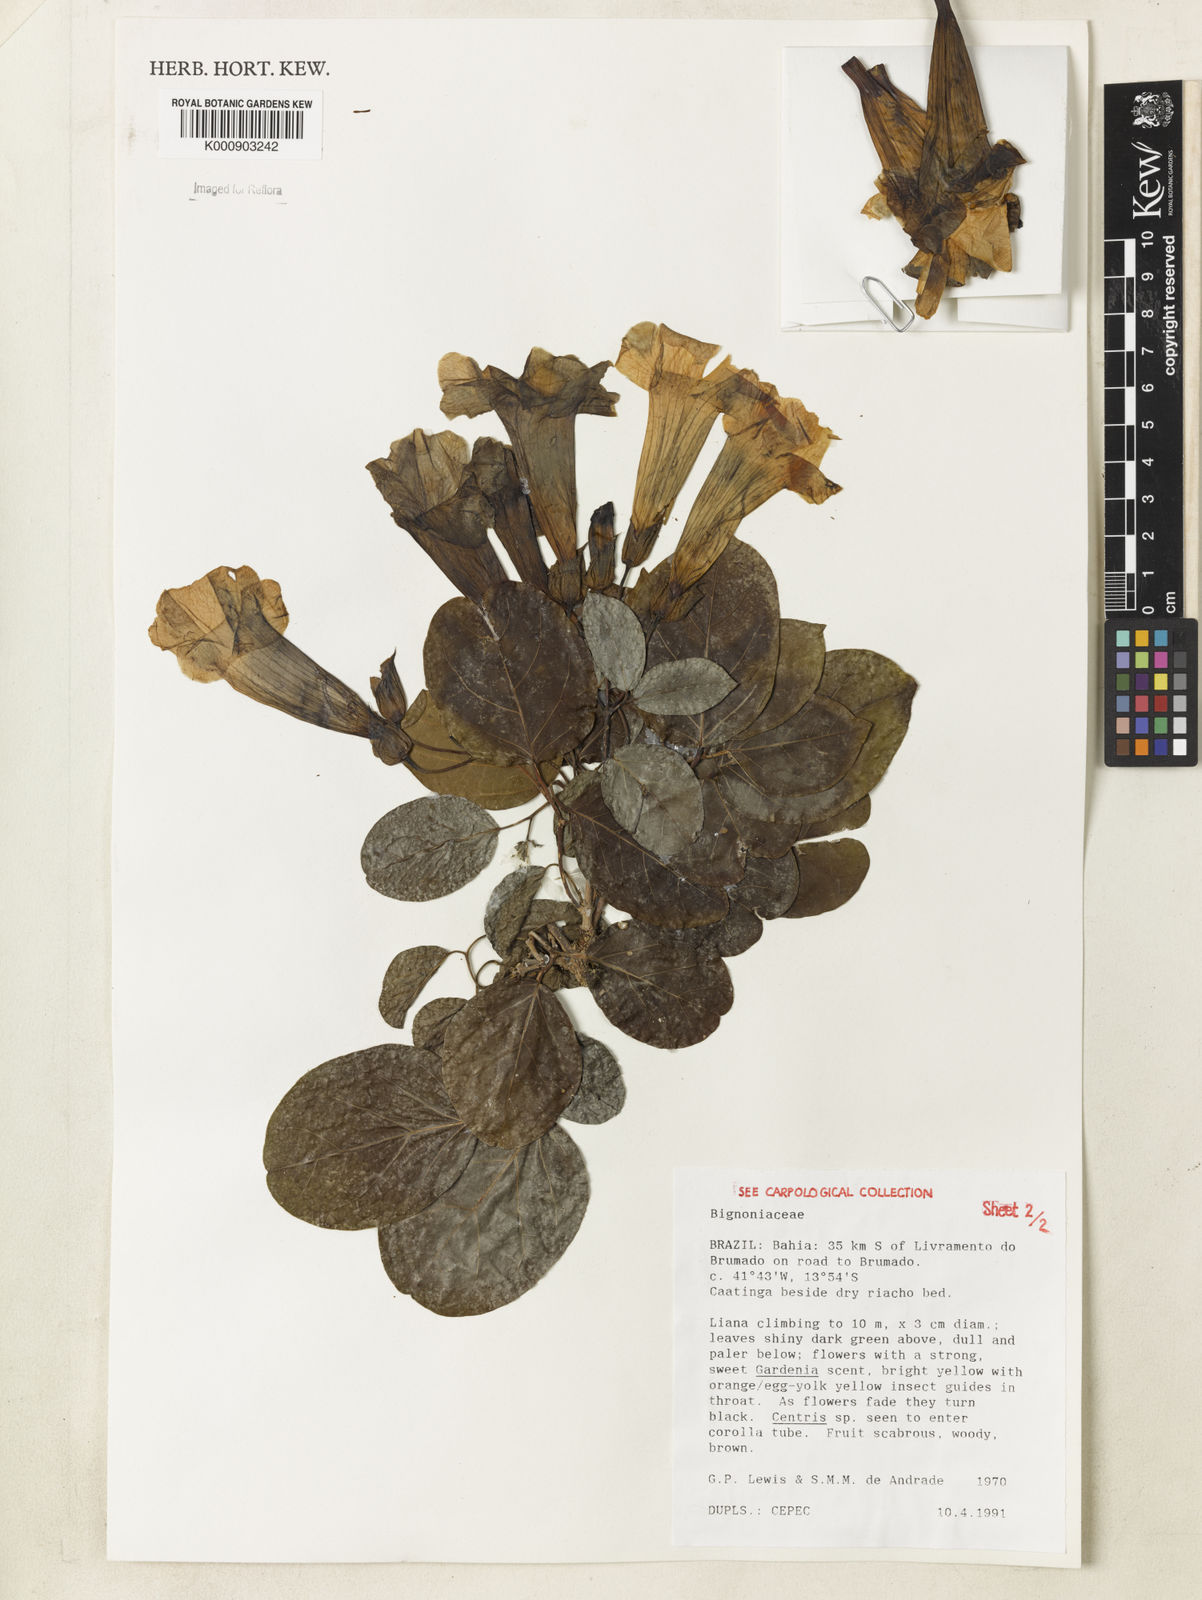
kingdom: Plantae
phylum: Tracheophyta
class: Magnoliopsida
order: Lamiales
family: Bignoniaceae
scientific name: Bignoniaceae
